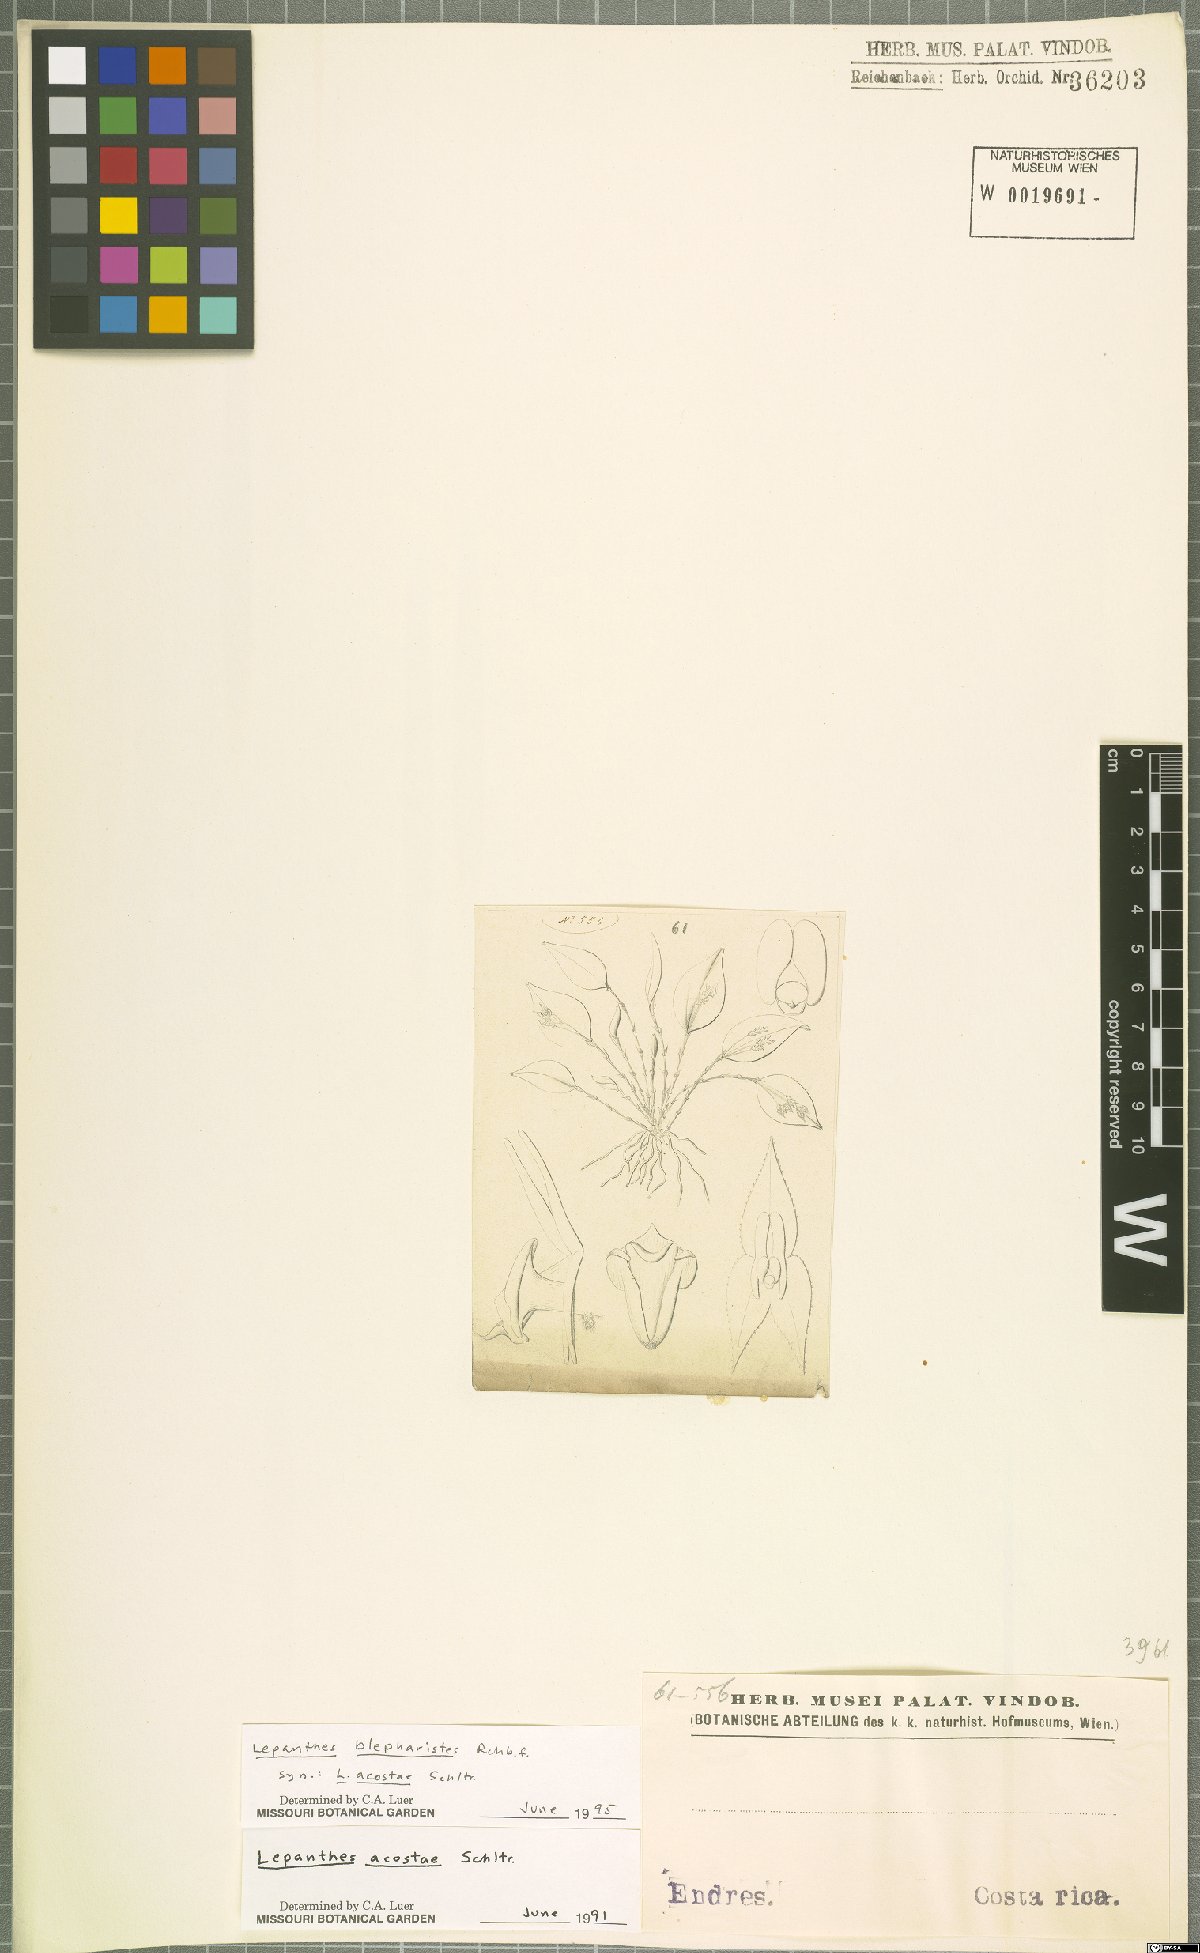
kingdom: Plantae
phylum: Tracheophyta
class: Liliopsida
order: Asparagales
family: Orchidaceae
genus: Lepanthes
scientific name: Lepanthes blepharistes
